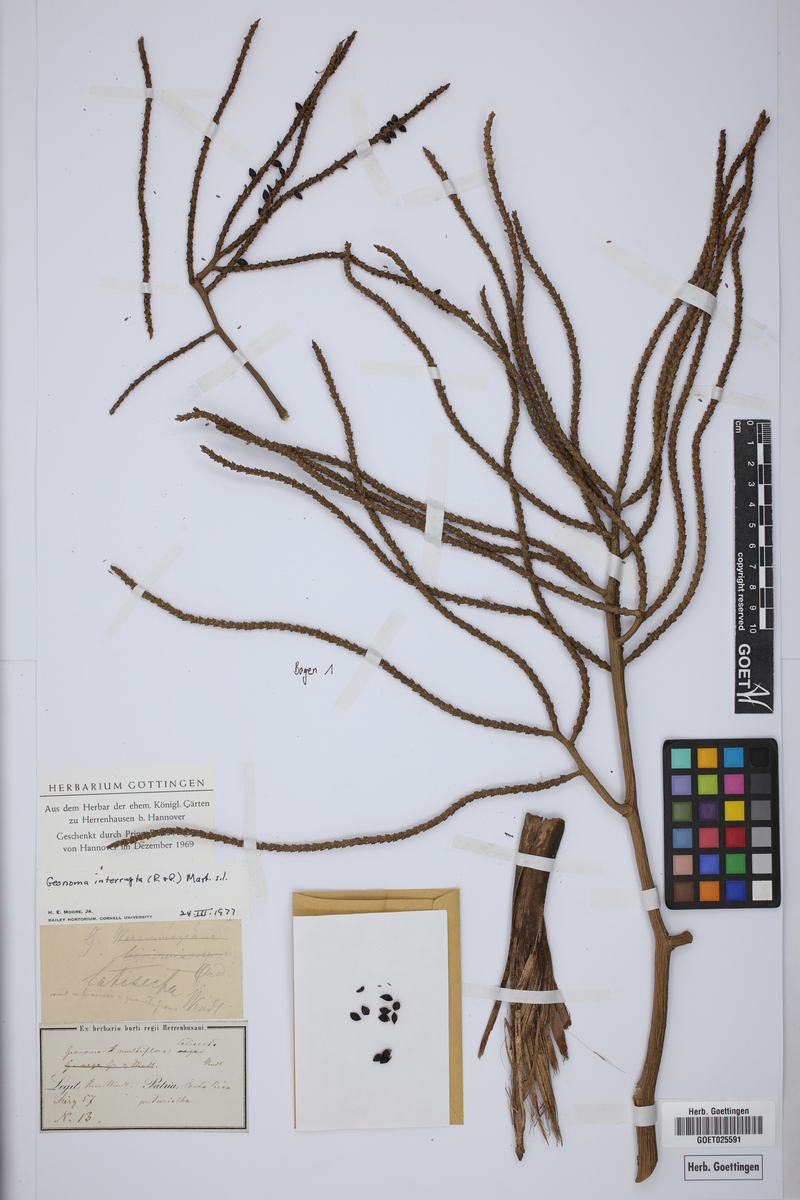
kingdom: Plantae
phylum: Tracheophyta
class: Liliopsida
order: Arecales
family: Arecaceae
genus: Geonoma
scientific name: Geonoma interrupta
